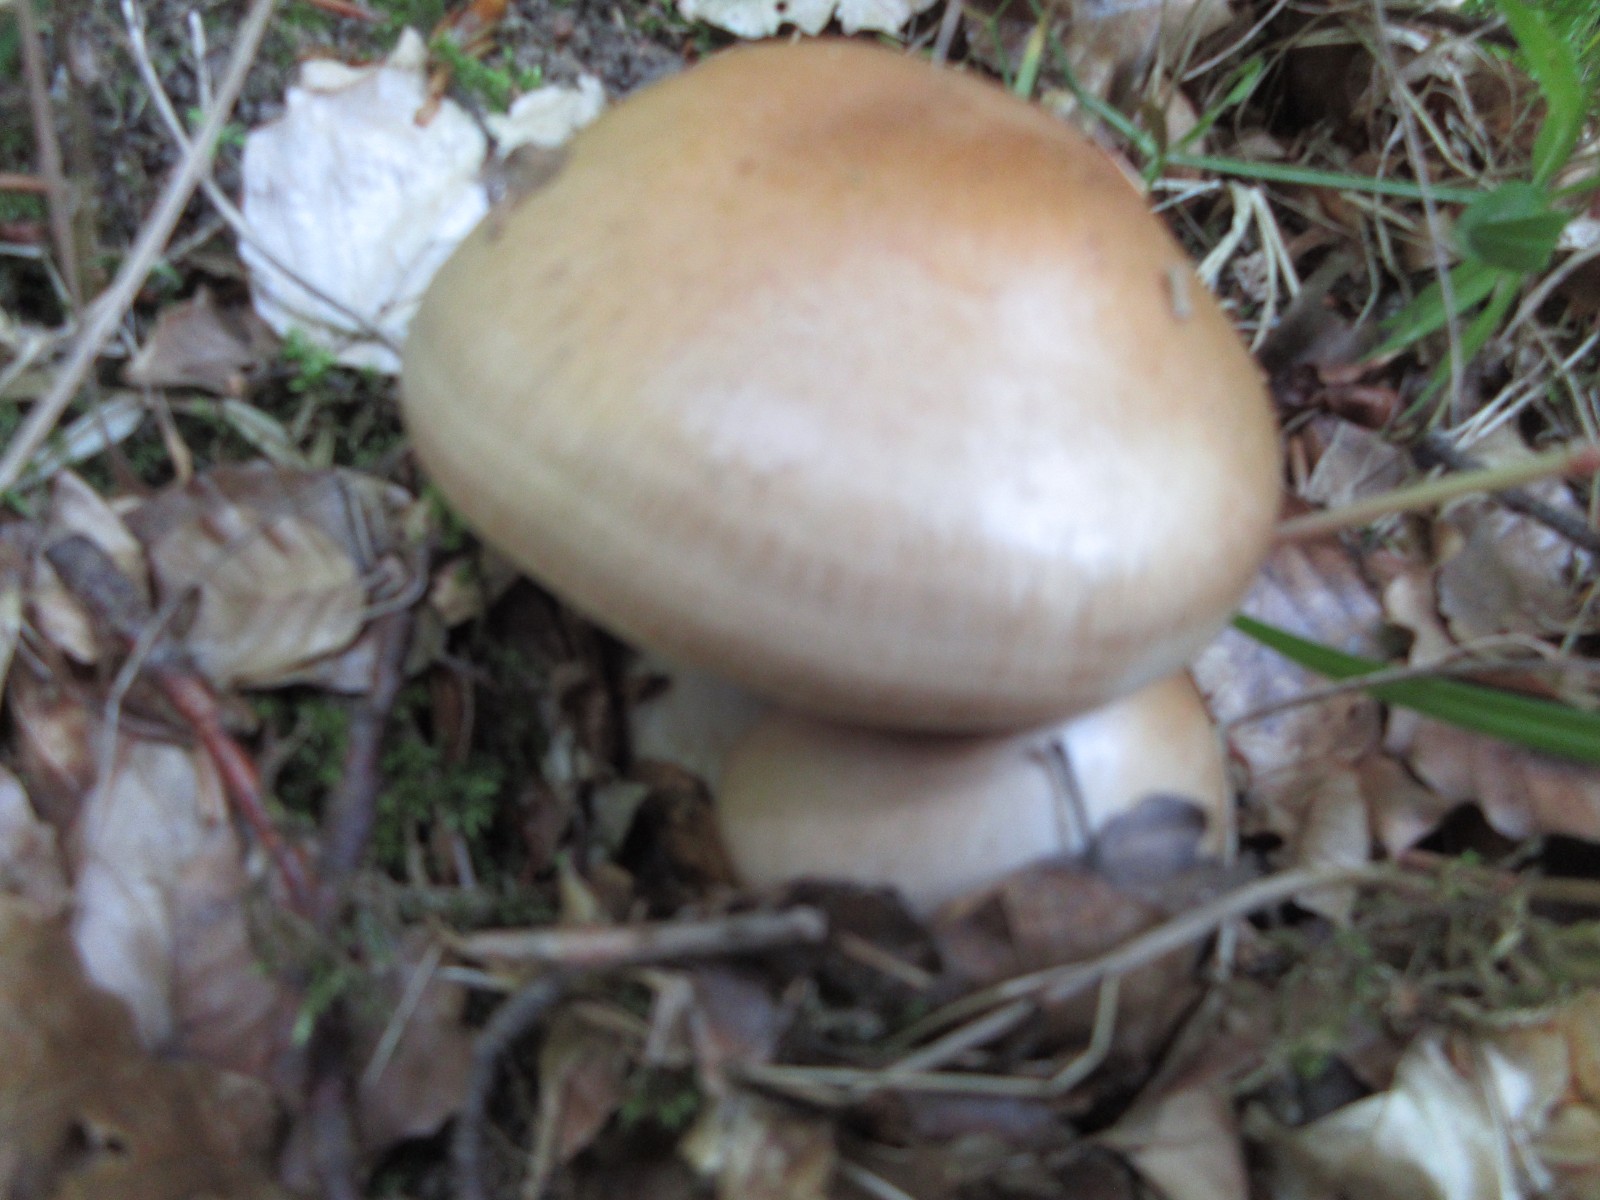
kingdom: Fungi
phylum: Basidiomycota
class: Agaricomycetes
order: Agaricales
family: Cortinariaceae
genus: Cortinarius
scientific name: Cortinarius anserinus
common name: bøge-slørhat
